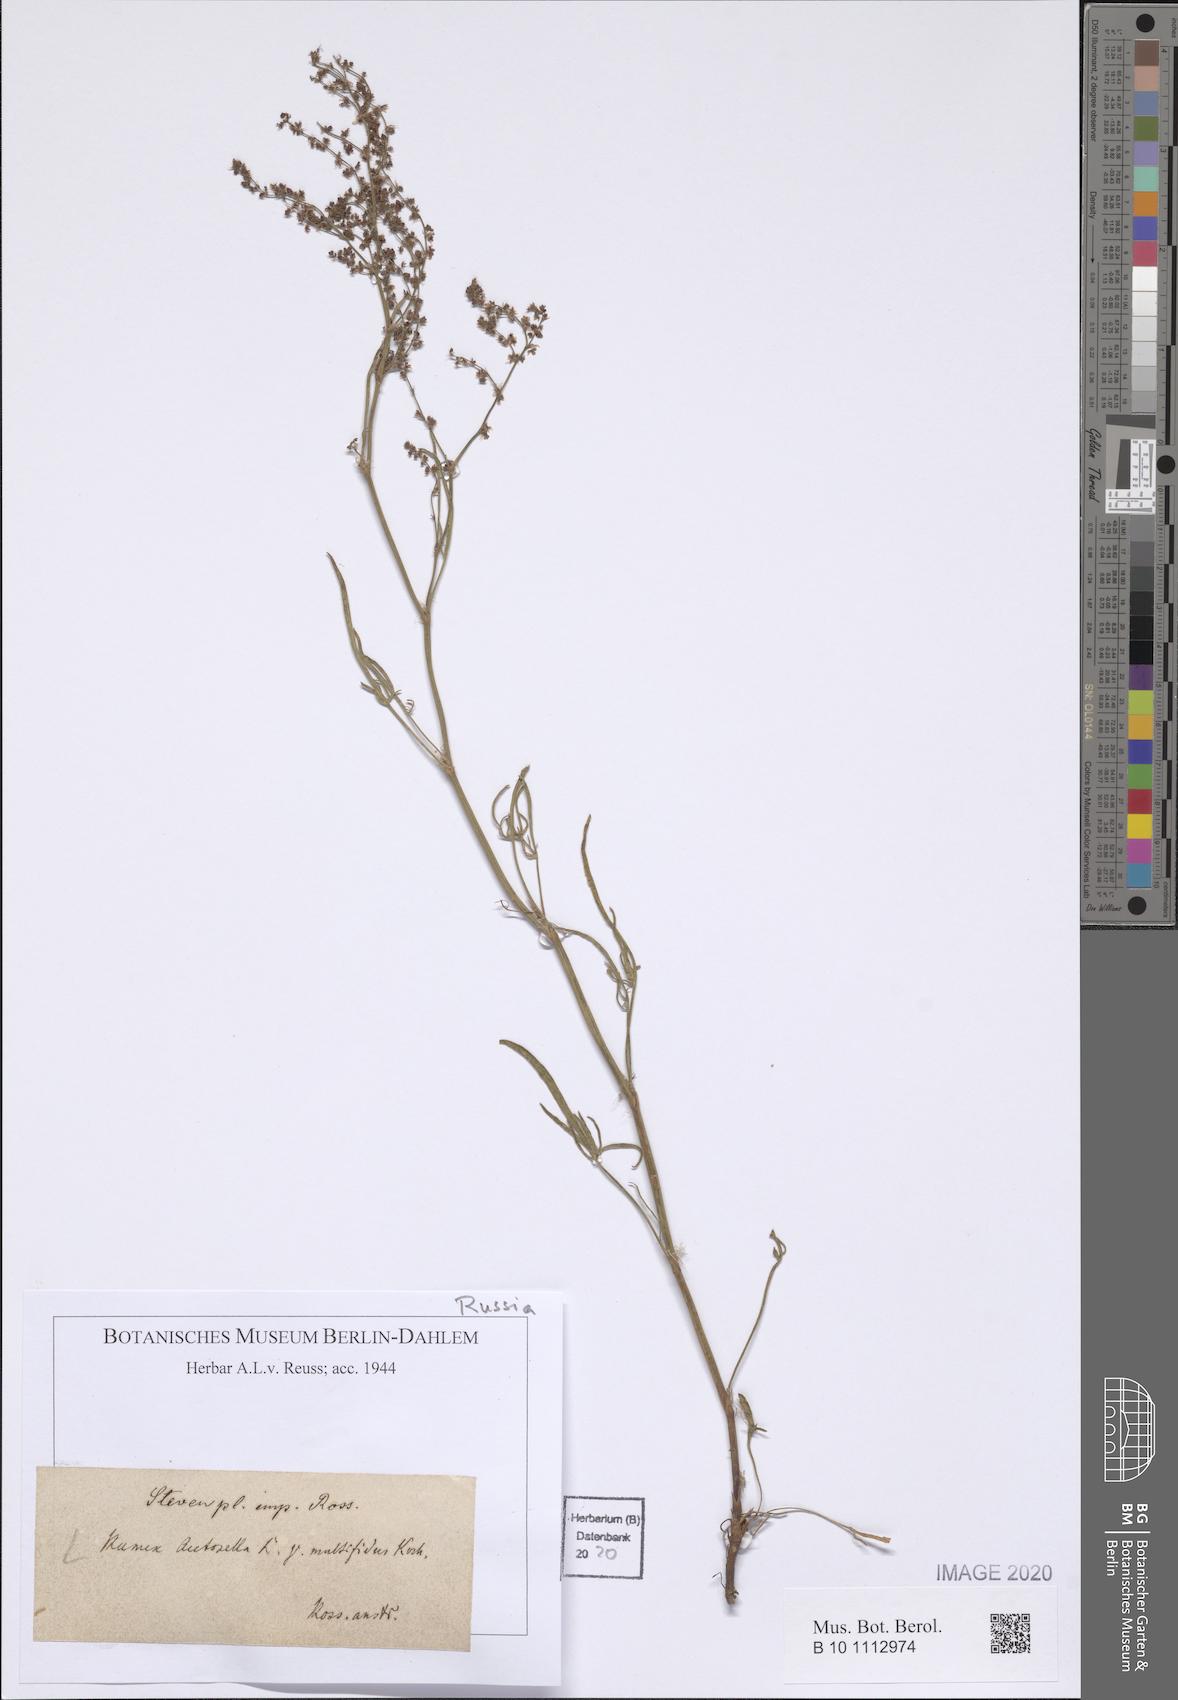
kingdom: Plantae
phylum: Tracheophyta
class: Magnoliopsida
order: Caryophyllales
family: Polygonaceae
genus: Rumex
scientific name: Rumex acetosella
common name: Common sheep sorrel
